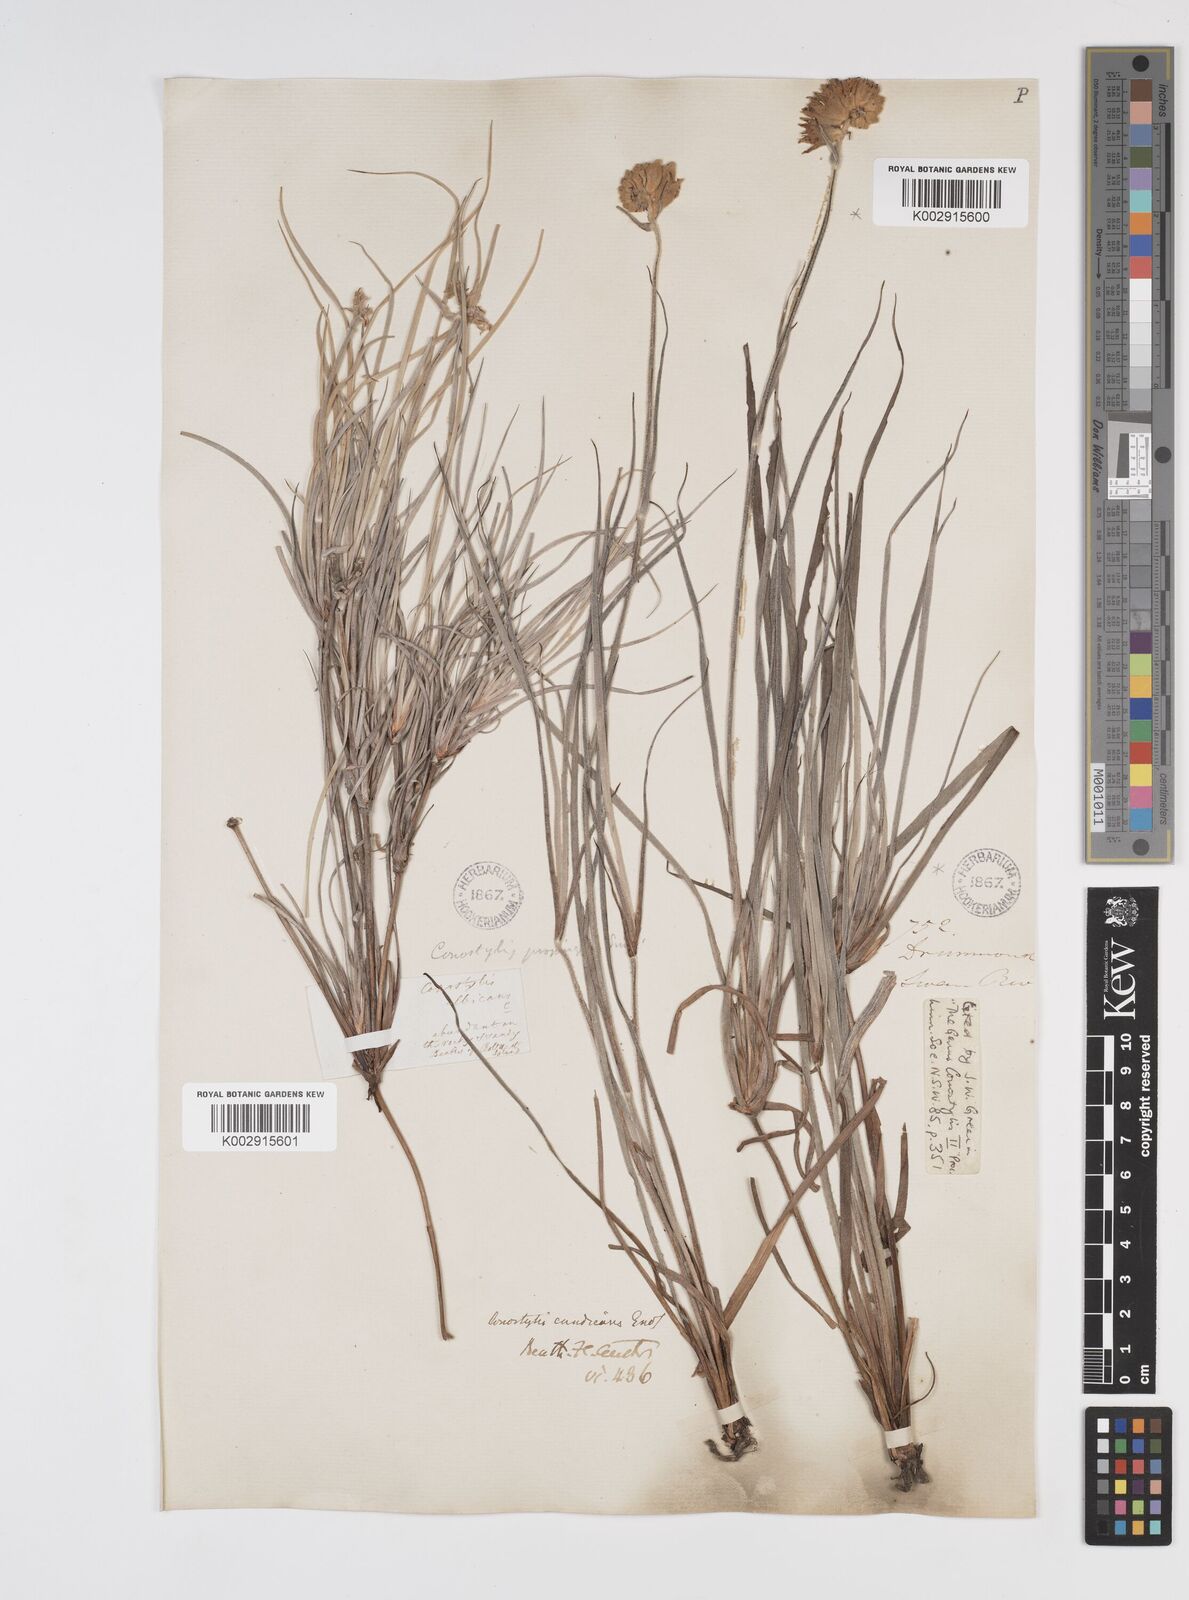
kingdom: Plantae
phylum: Tracheophyta
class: Liliopsida
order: Commelinales
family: Haemodoraceae
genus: Conostylis
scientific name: Conostylis candicans
